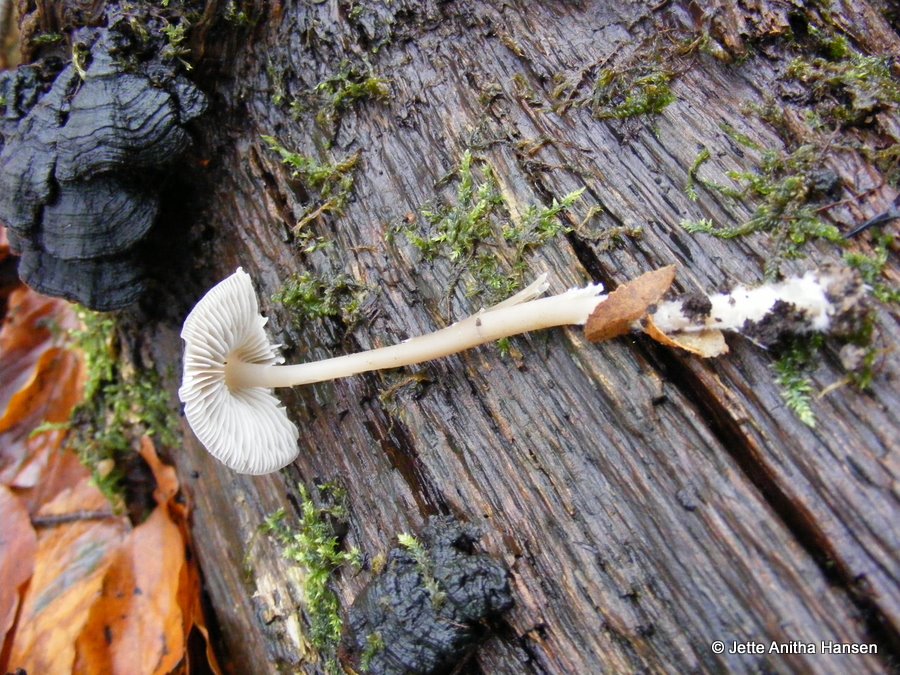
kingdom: Fungi
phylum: Basidiomycota
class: Agaricomycetes
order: Agaricales
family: Mycenaceae
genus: Mycena
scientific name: Mycena galericulata
